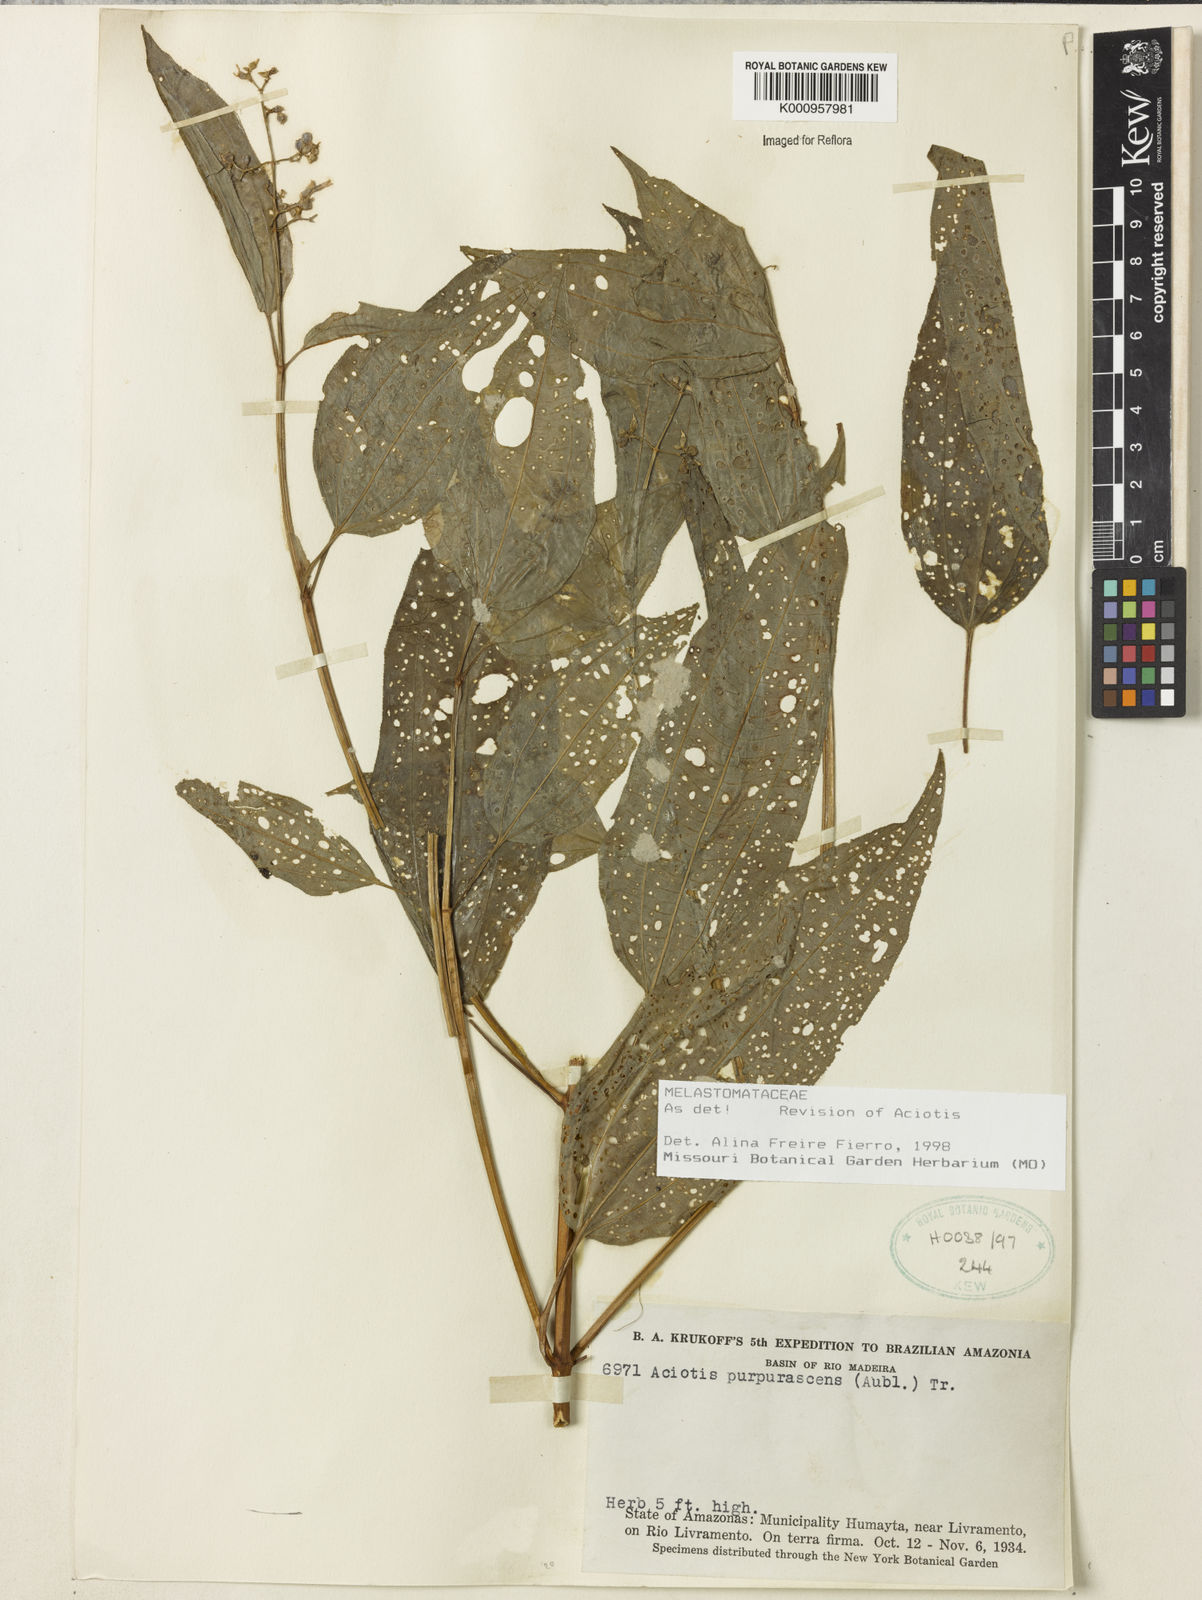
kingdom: Plantae
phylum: Tracheophyta
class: Magnoliopsida
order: Myrtales
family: Melastomataceae
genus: Aciotis
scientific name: Aciotis purpurascens
